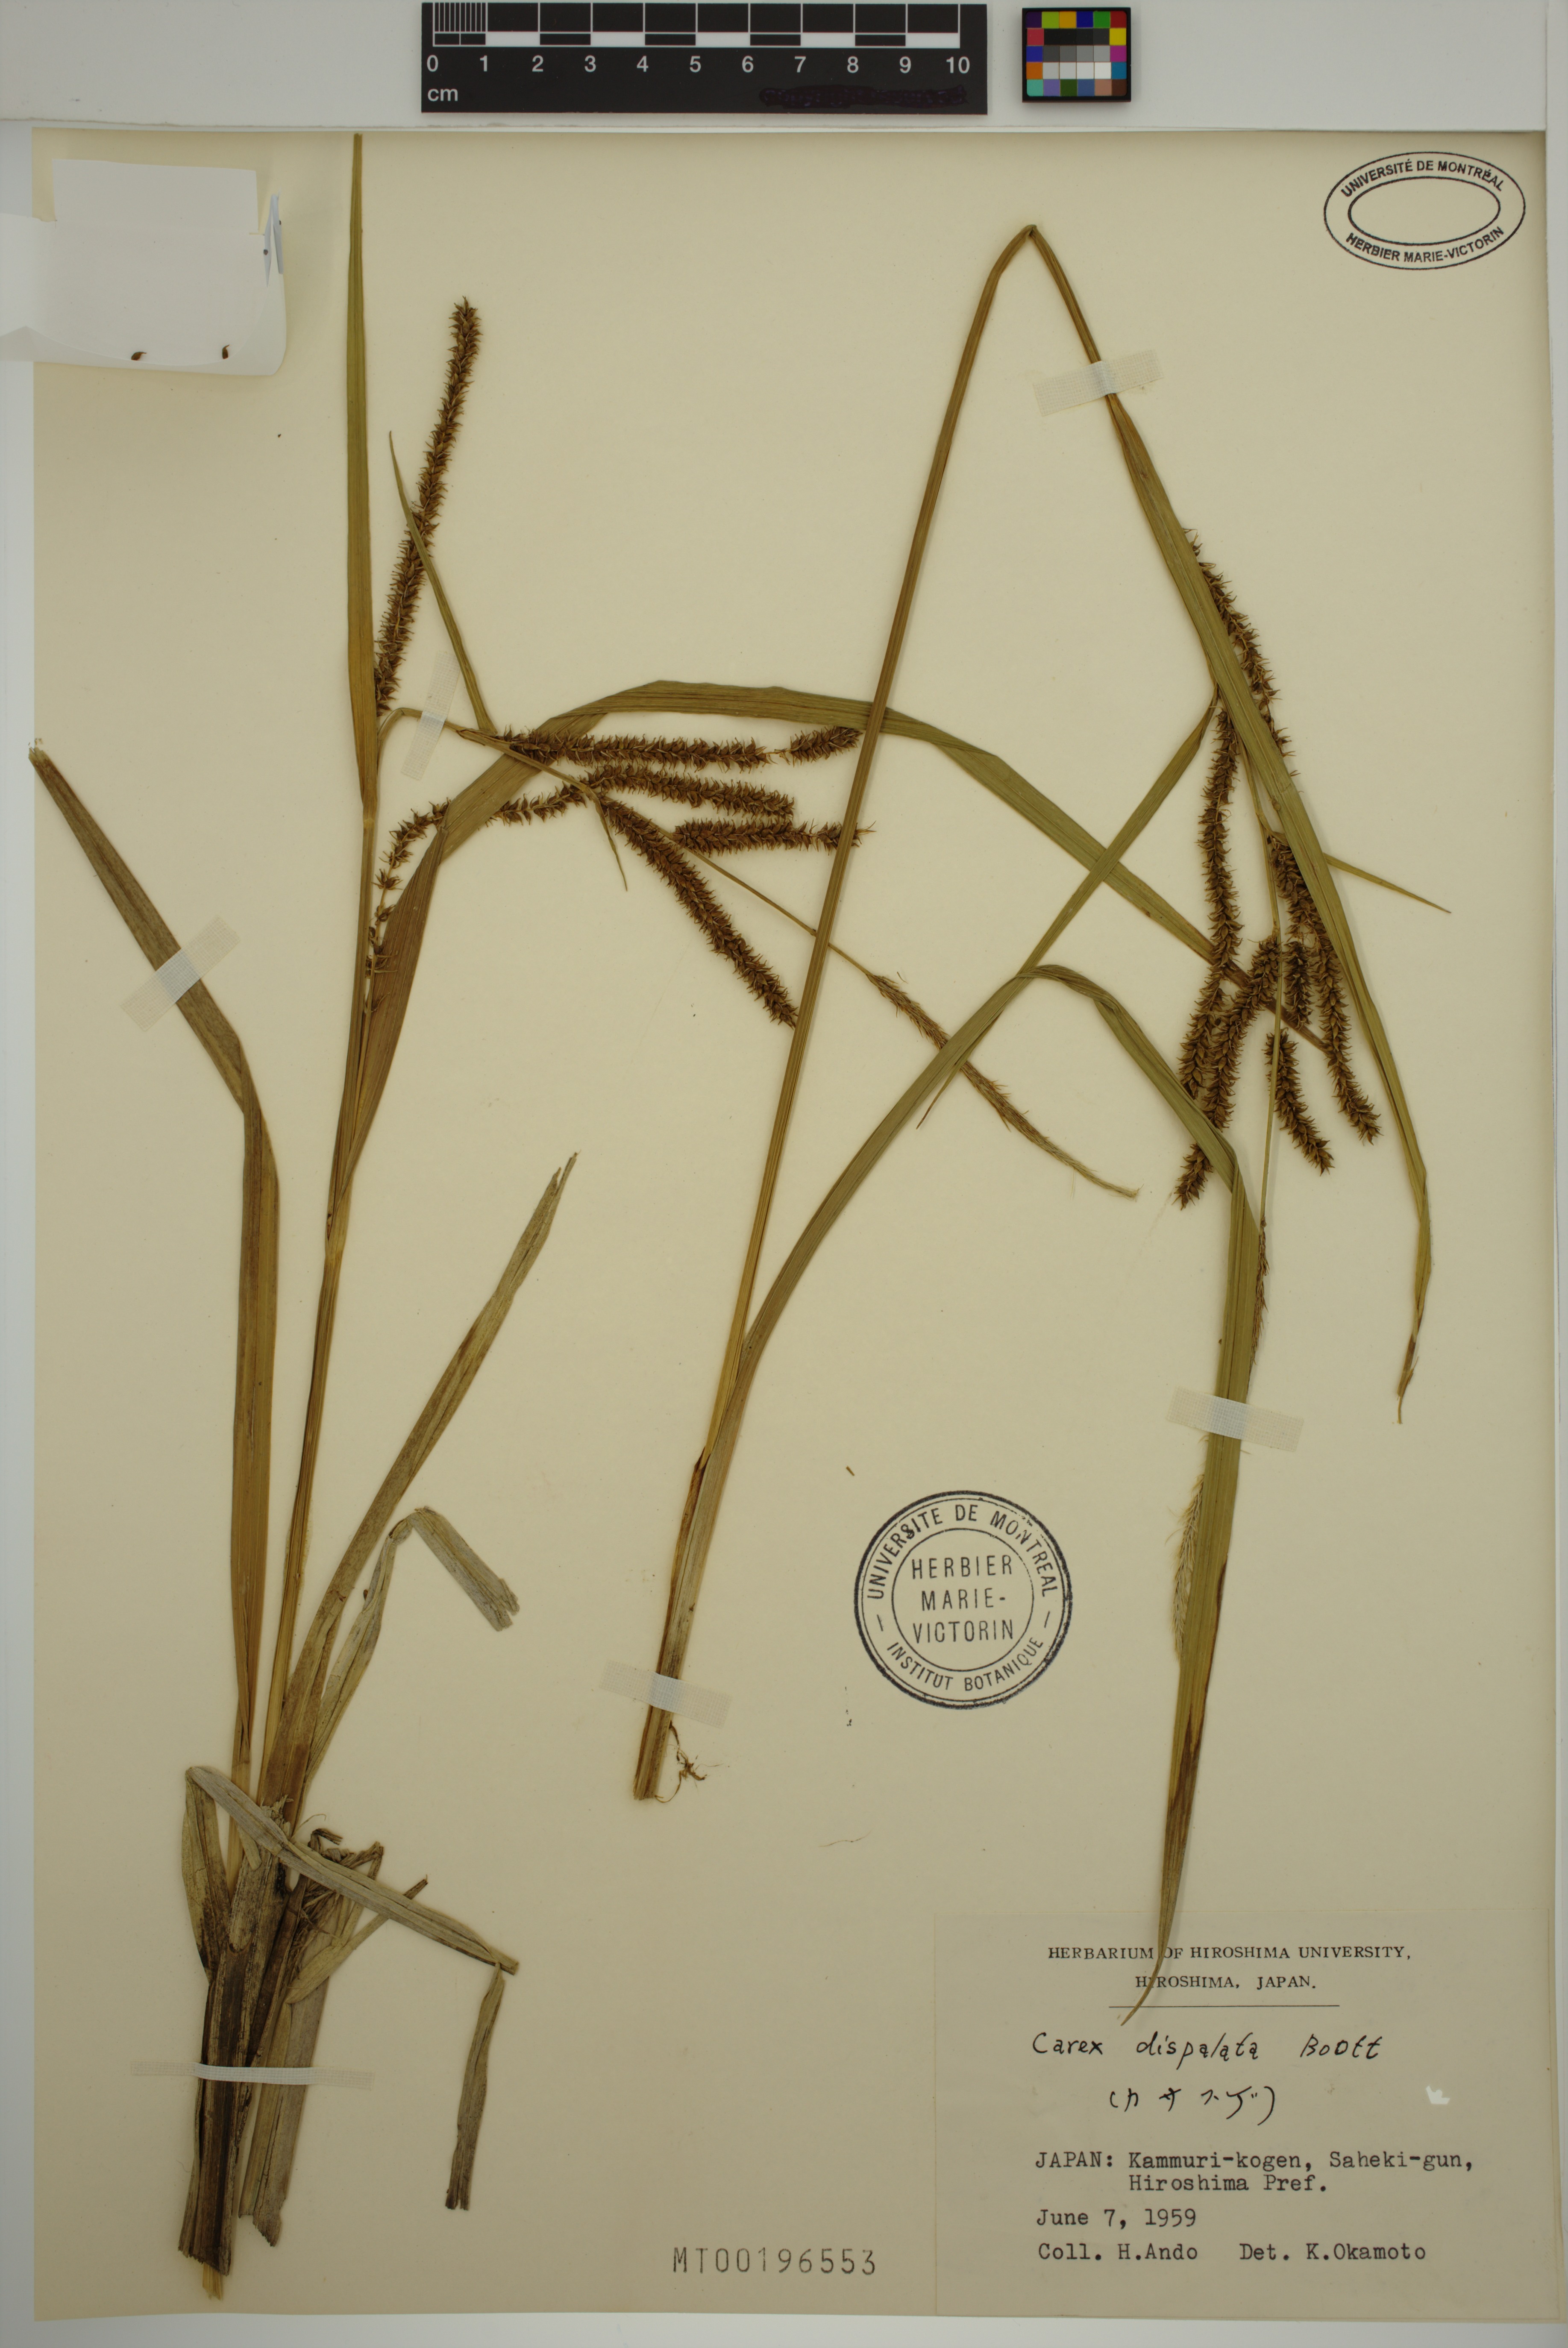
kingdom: Plantae
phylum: Tracheophyta
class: Liliopsida
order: Poales
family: Cyperaceae
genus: Carex
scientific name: Carex dispalata
